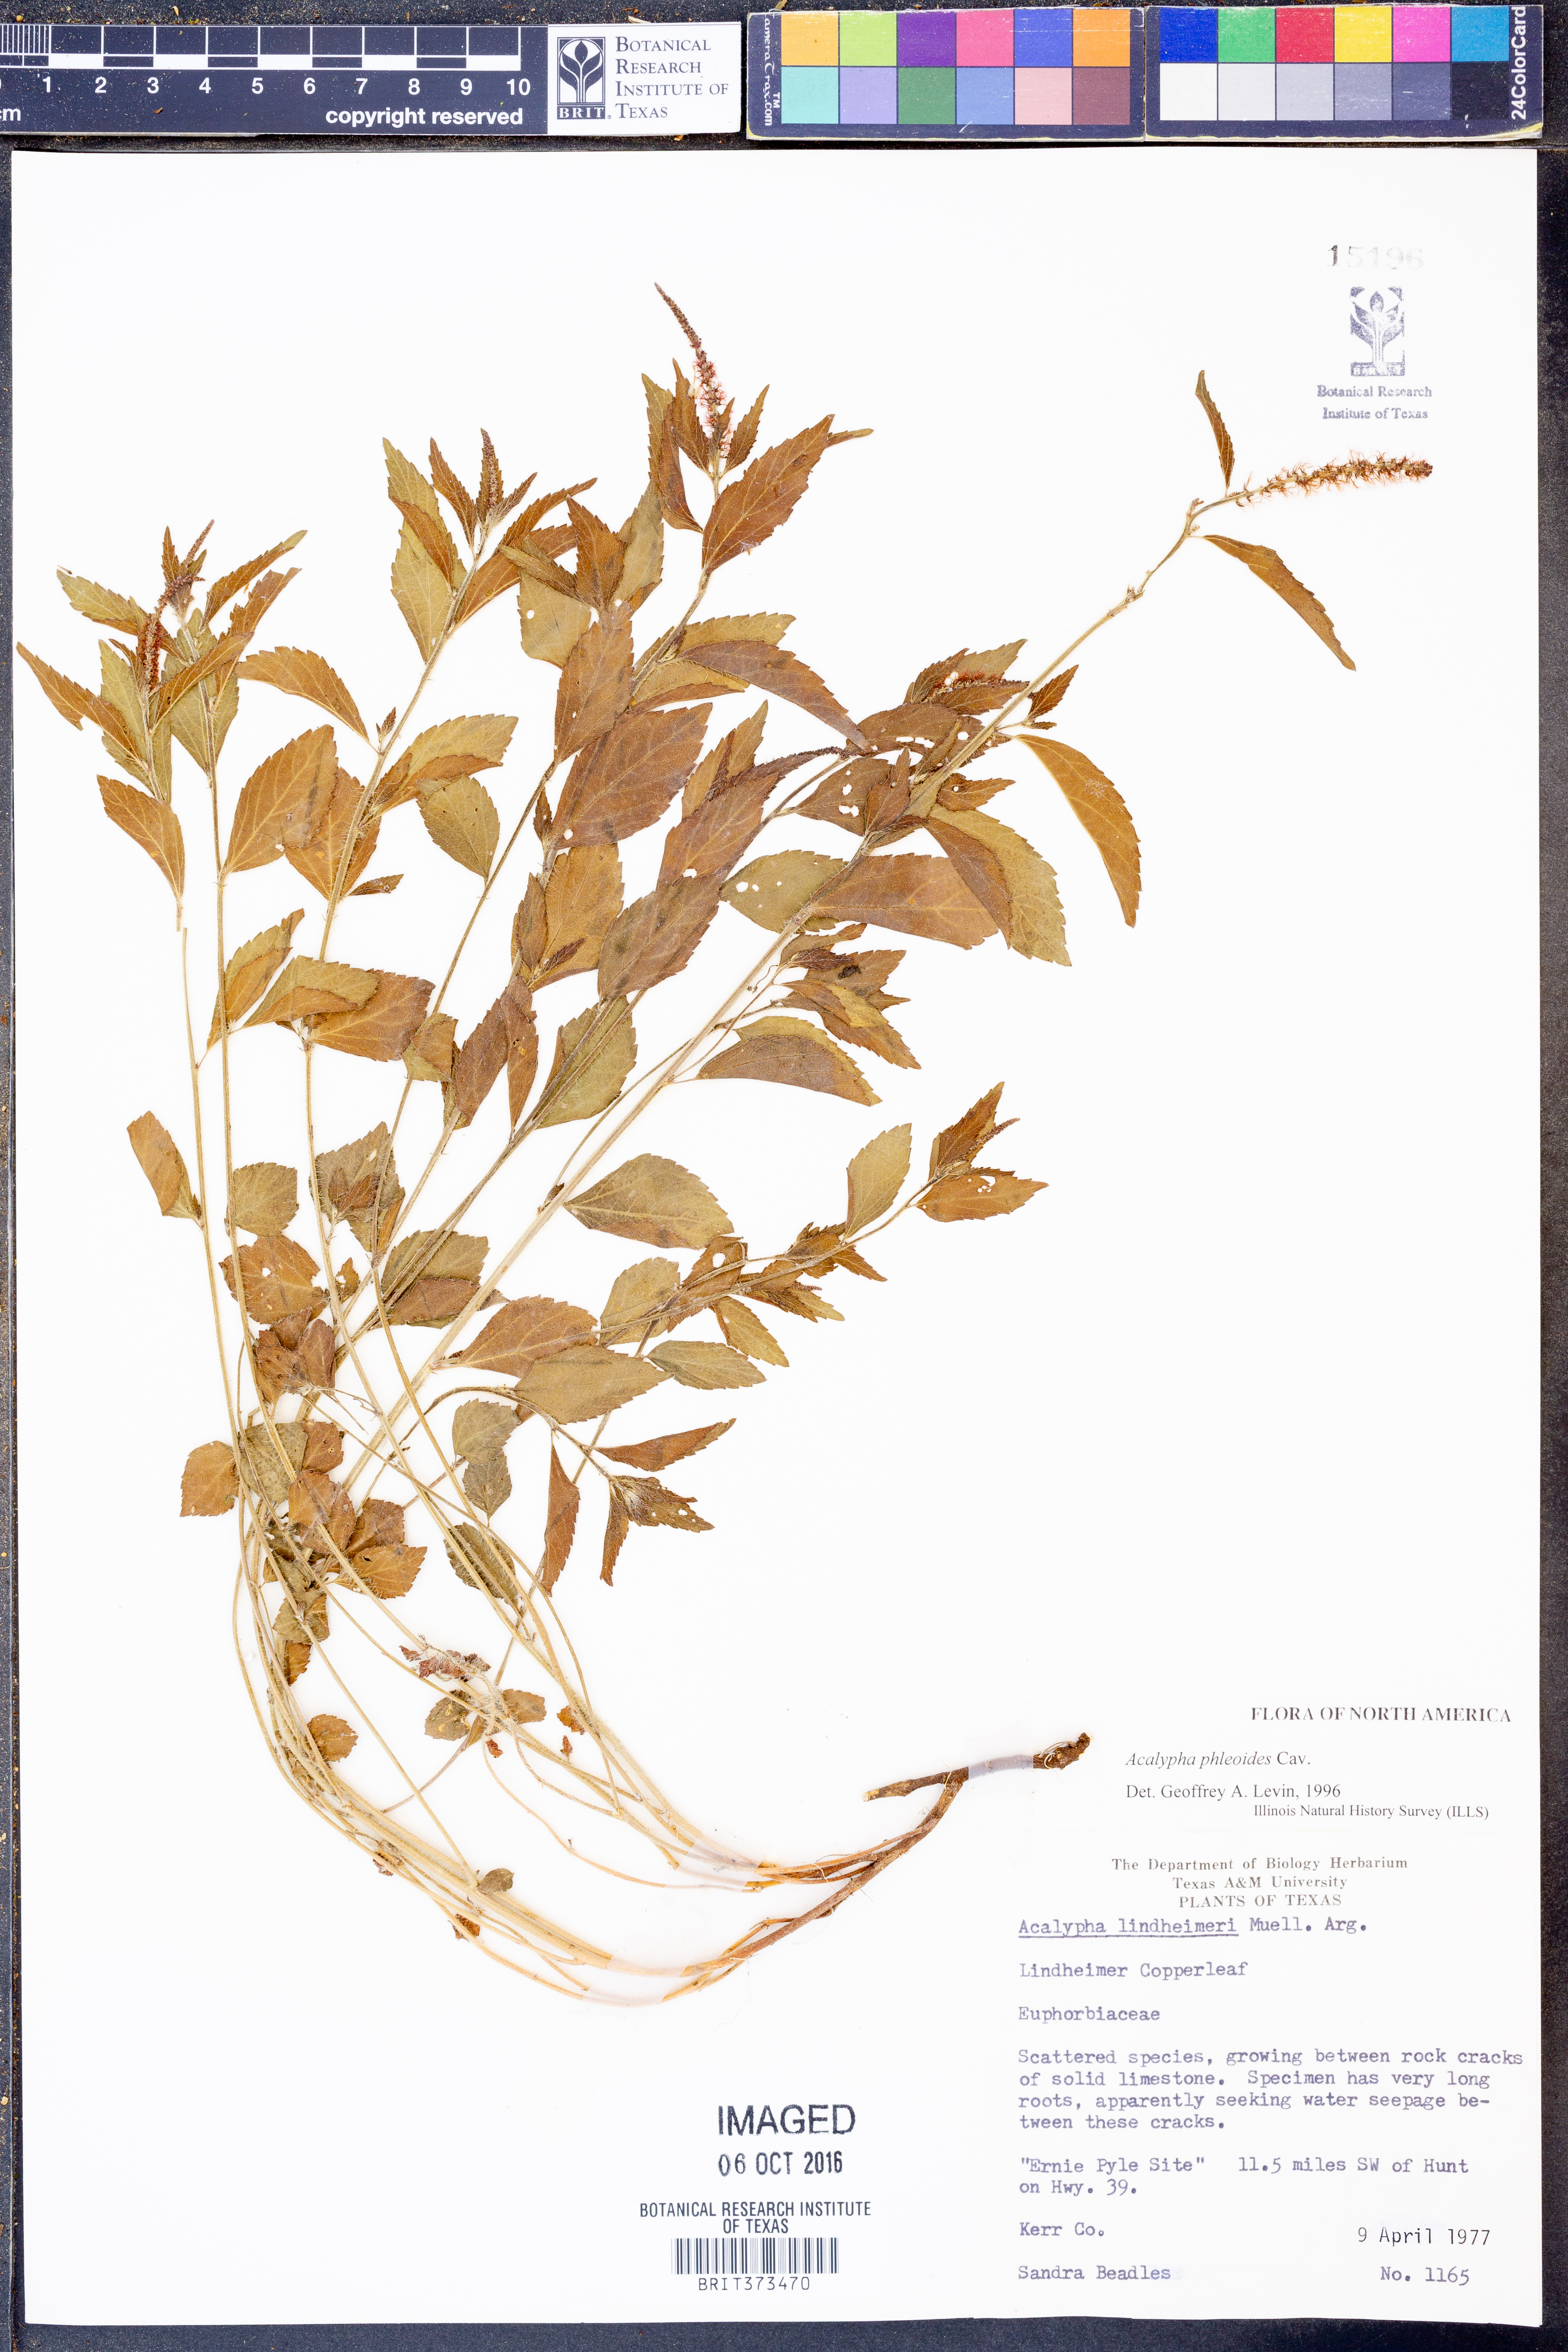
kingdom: Plantae
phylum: Tracheophyta
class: Magnoliopsida
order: Malpighiales
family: Euphorbiaceae
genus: Acalypha
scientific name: Acalypha phleoides
